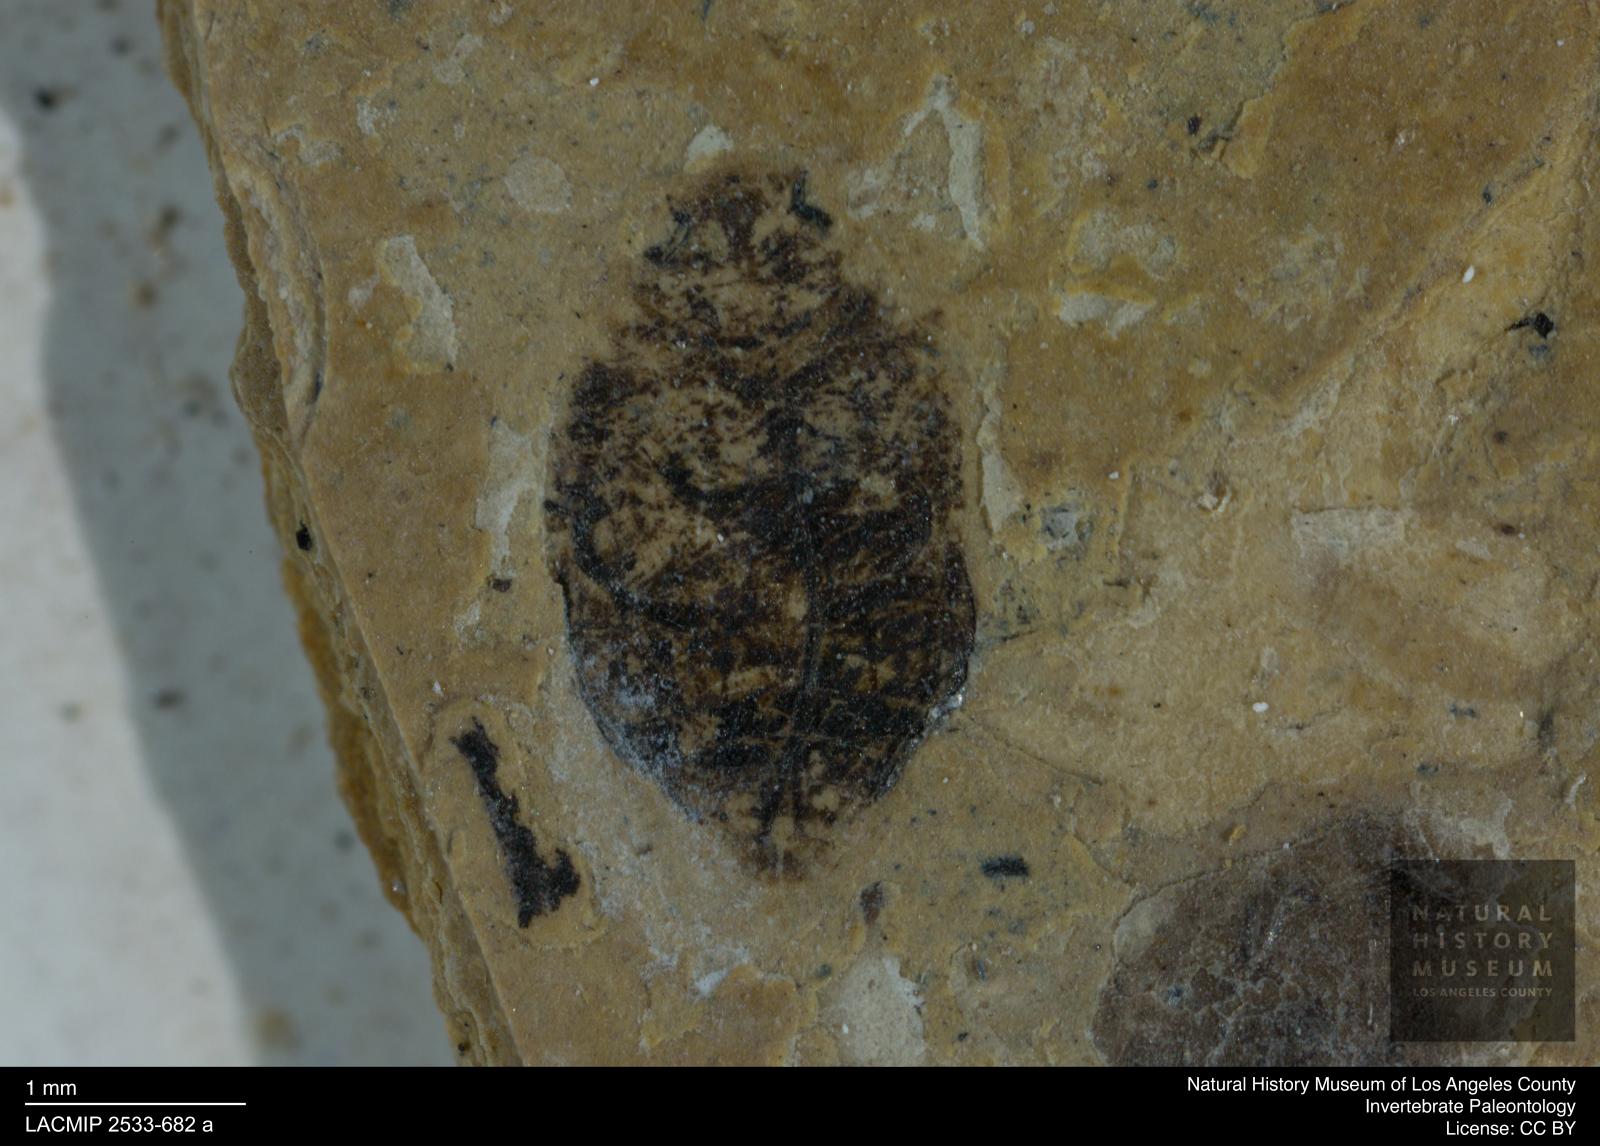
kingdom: Animalia
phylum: Arthropoda
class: Insecta
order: Coleoptera
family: Dytiscidae
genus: Oreodytes
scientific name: Oreodytes cryptolineatus
